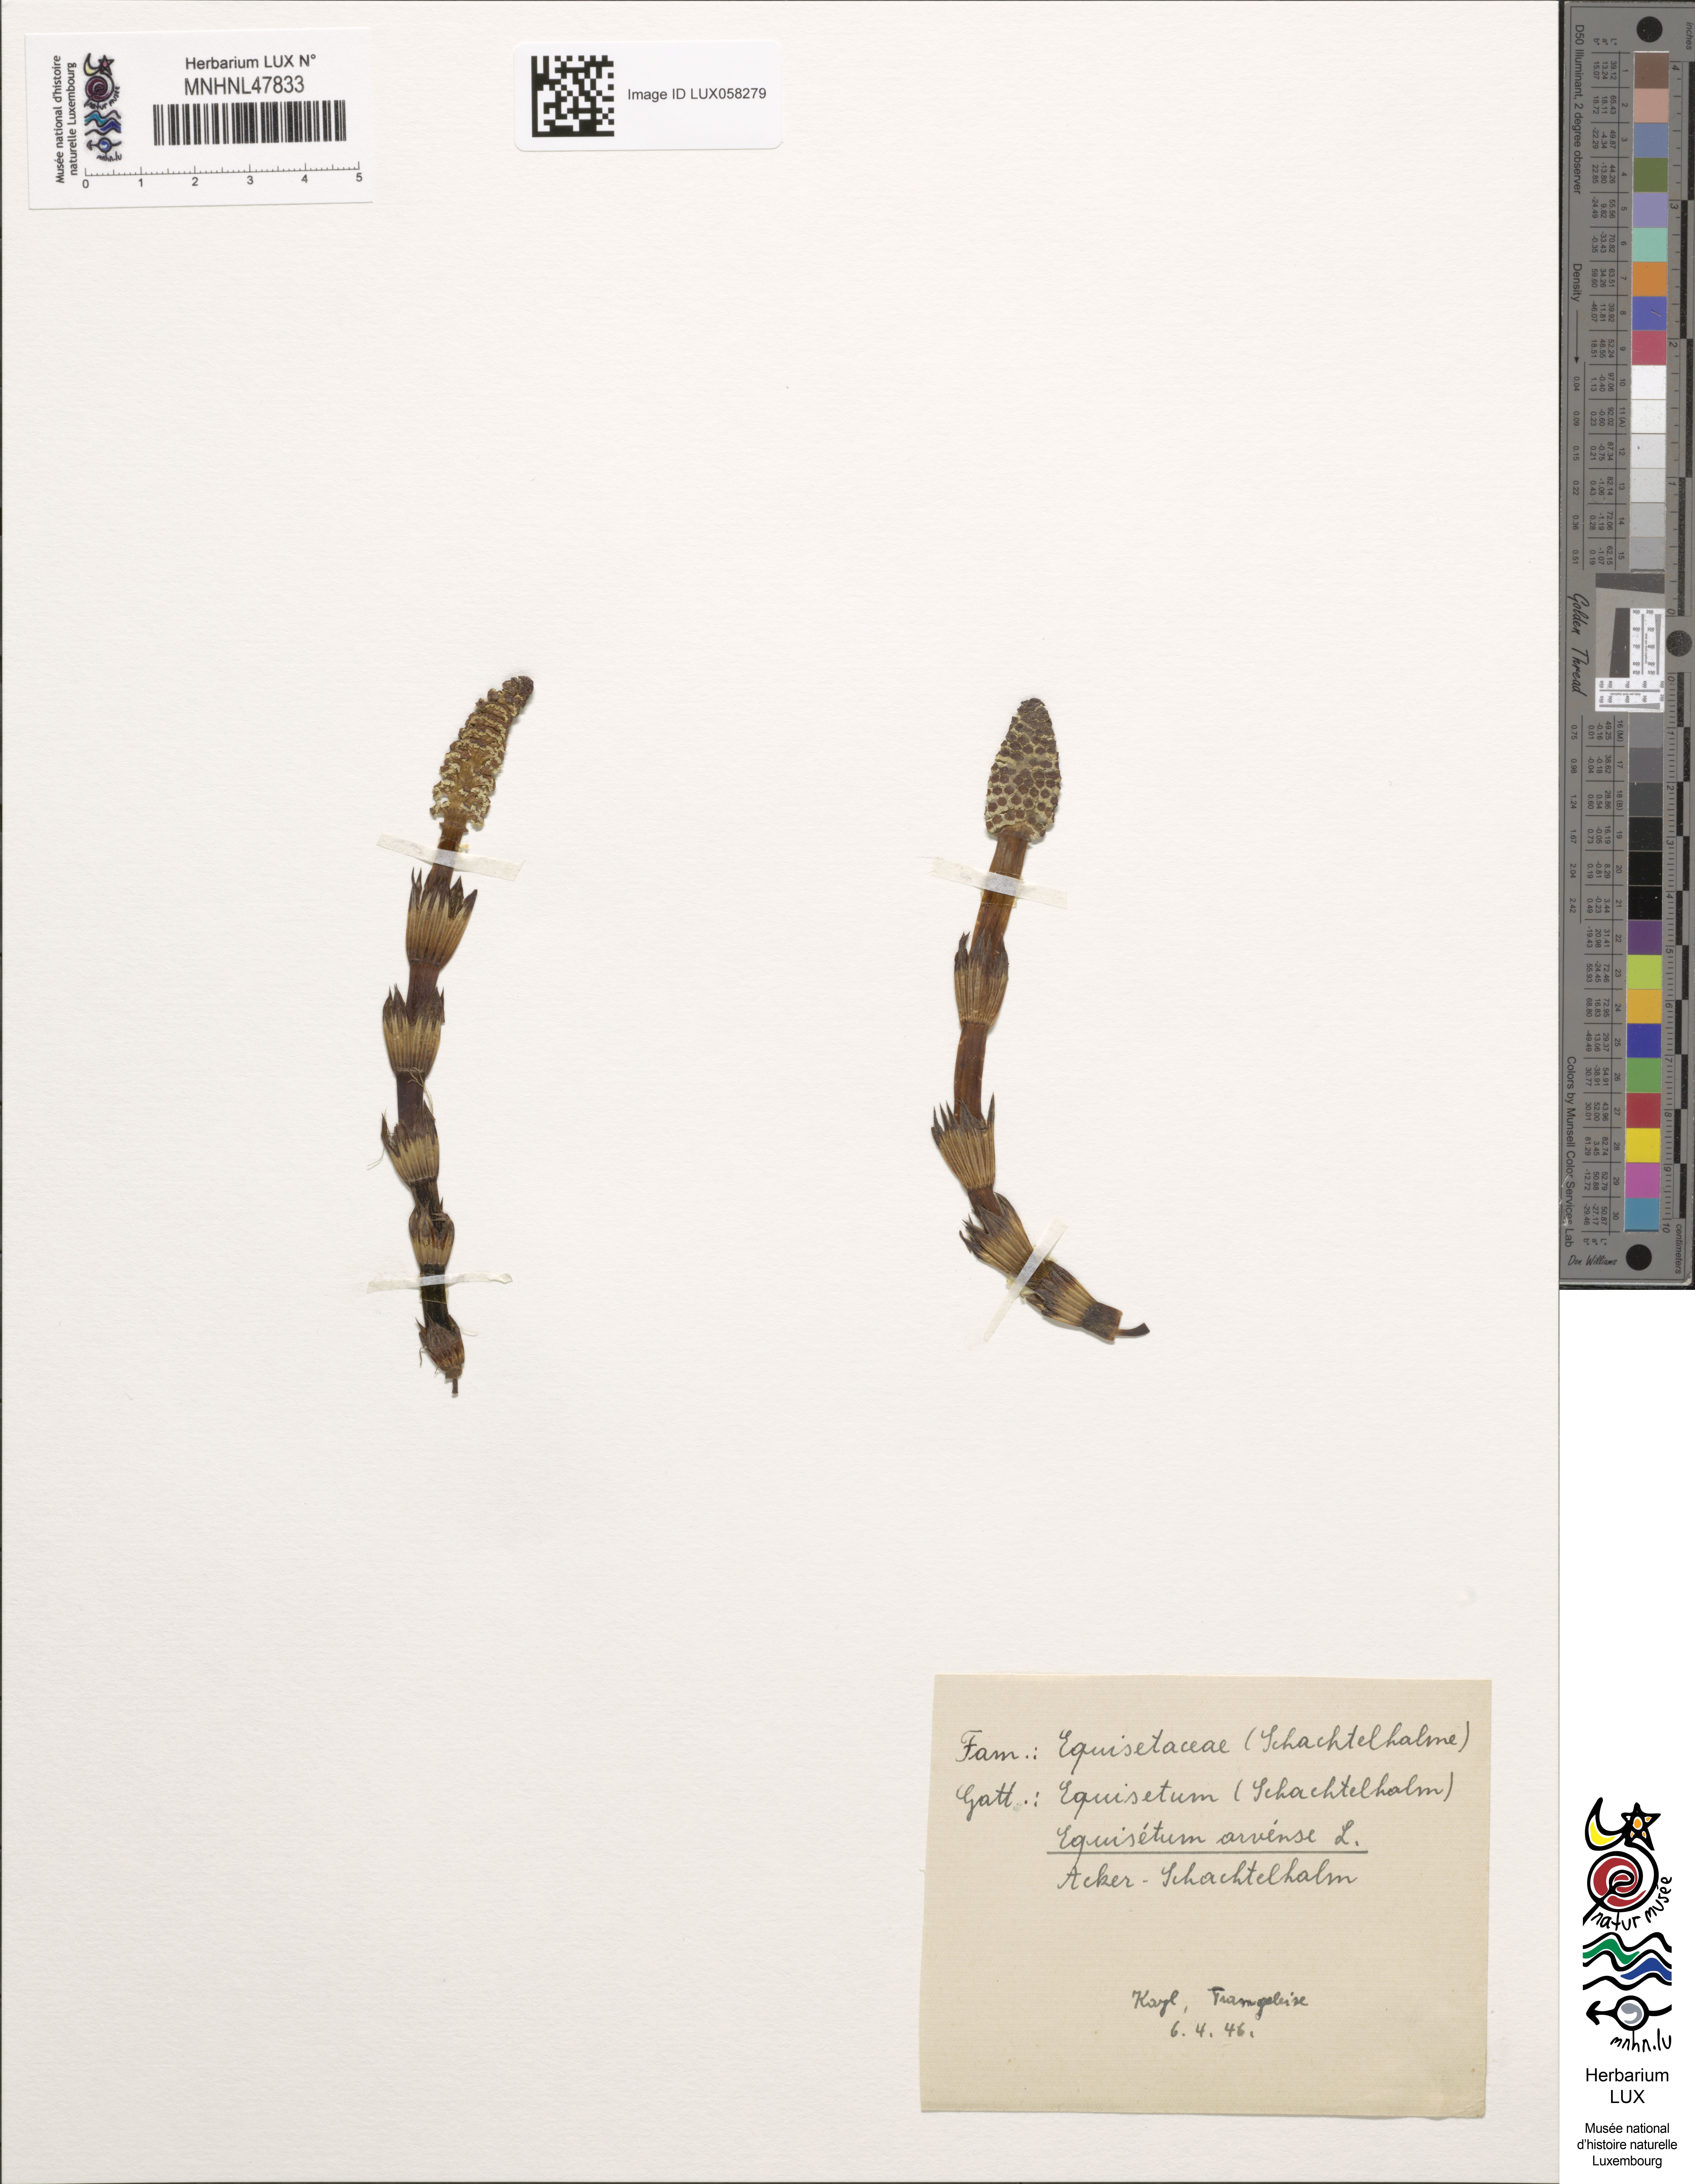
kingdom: Plantae
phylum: Tracheophyta
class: Polypodiopsida
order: Equisetales
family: Equisetaceae
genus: Equisetum
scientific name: Equisetum arvense
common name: Field horsetail
